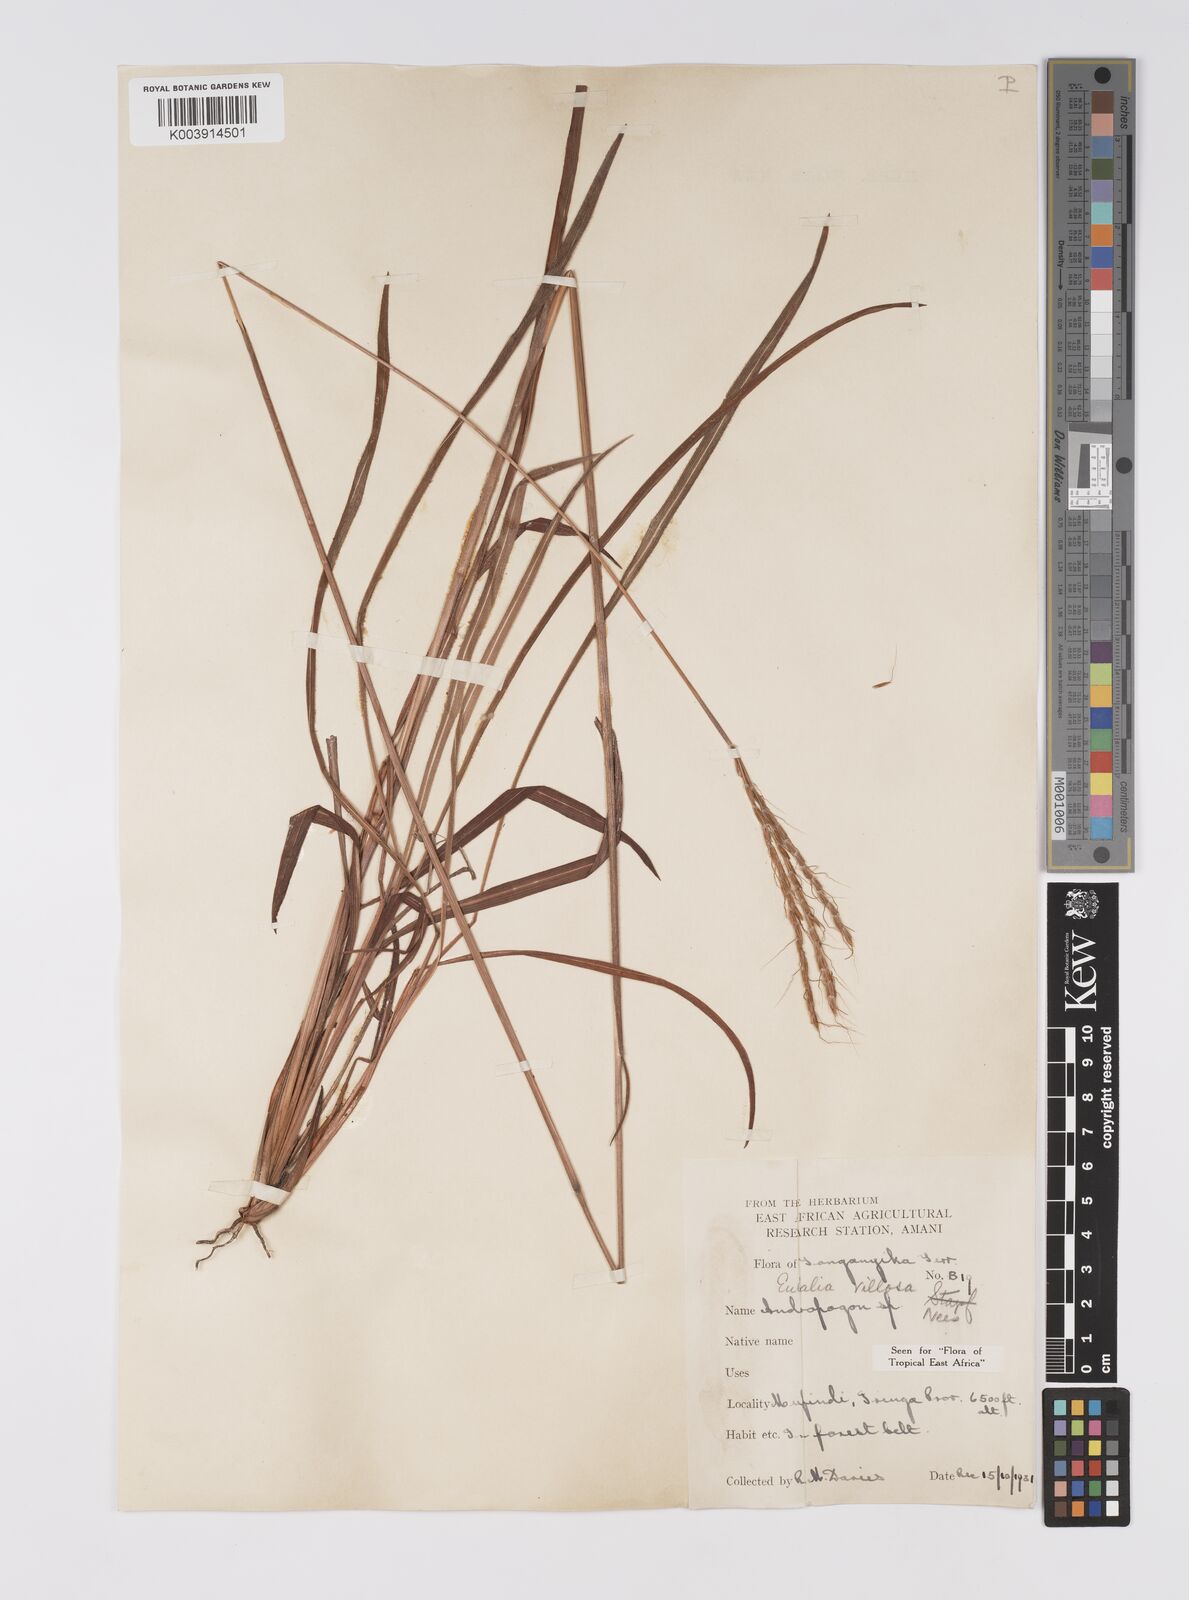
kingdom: Plantae
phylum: Tracheophyta
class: Liliopsida
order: Poales
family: Poaceae
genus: Eulalia
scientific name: Eulalia villosa
